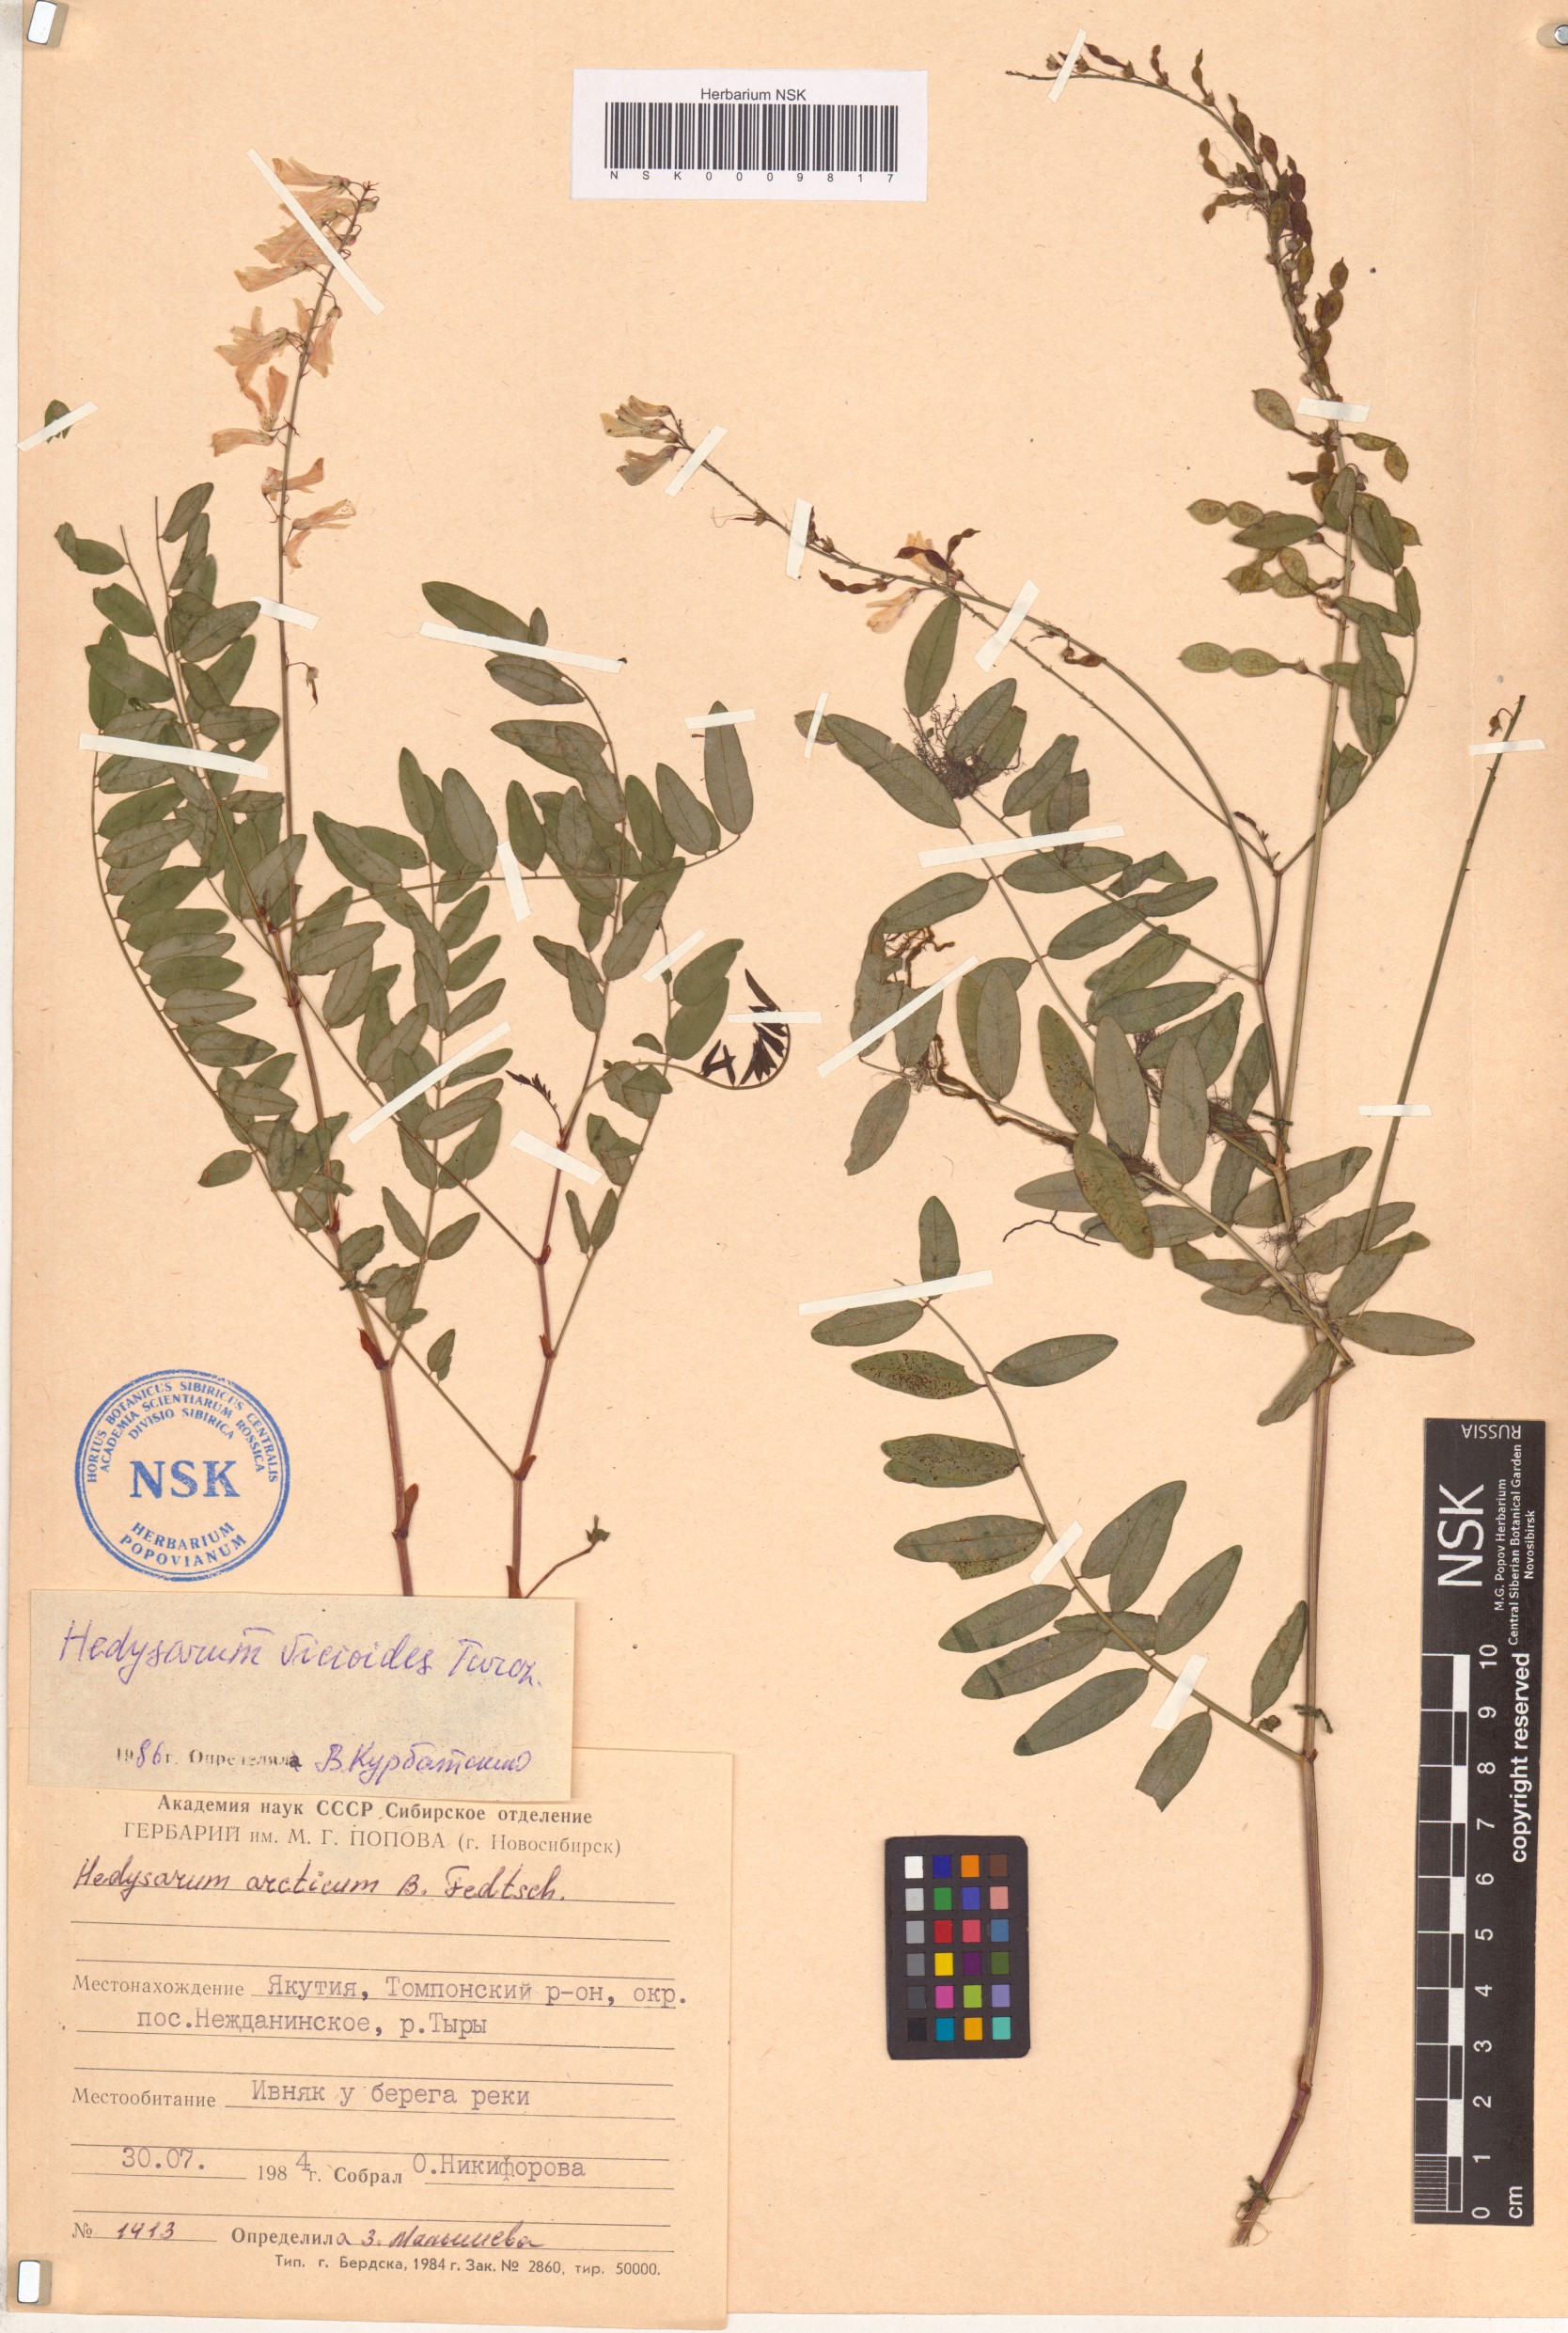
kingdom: Plantae
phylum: Tracheophyta
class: Magnoliopsida
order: Fabales
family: Fabaceae
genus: Hedysarum
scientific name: Hedysarum vicioides
